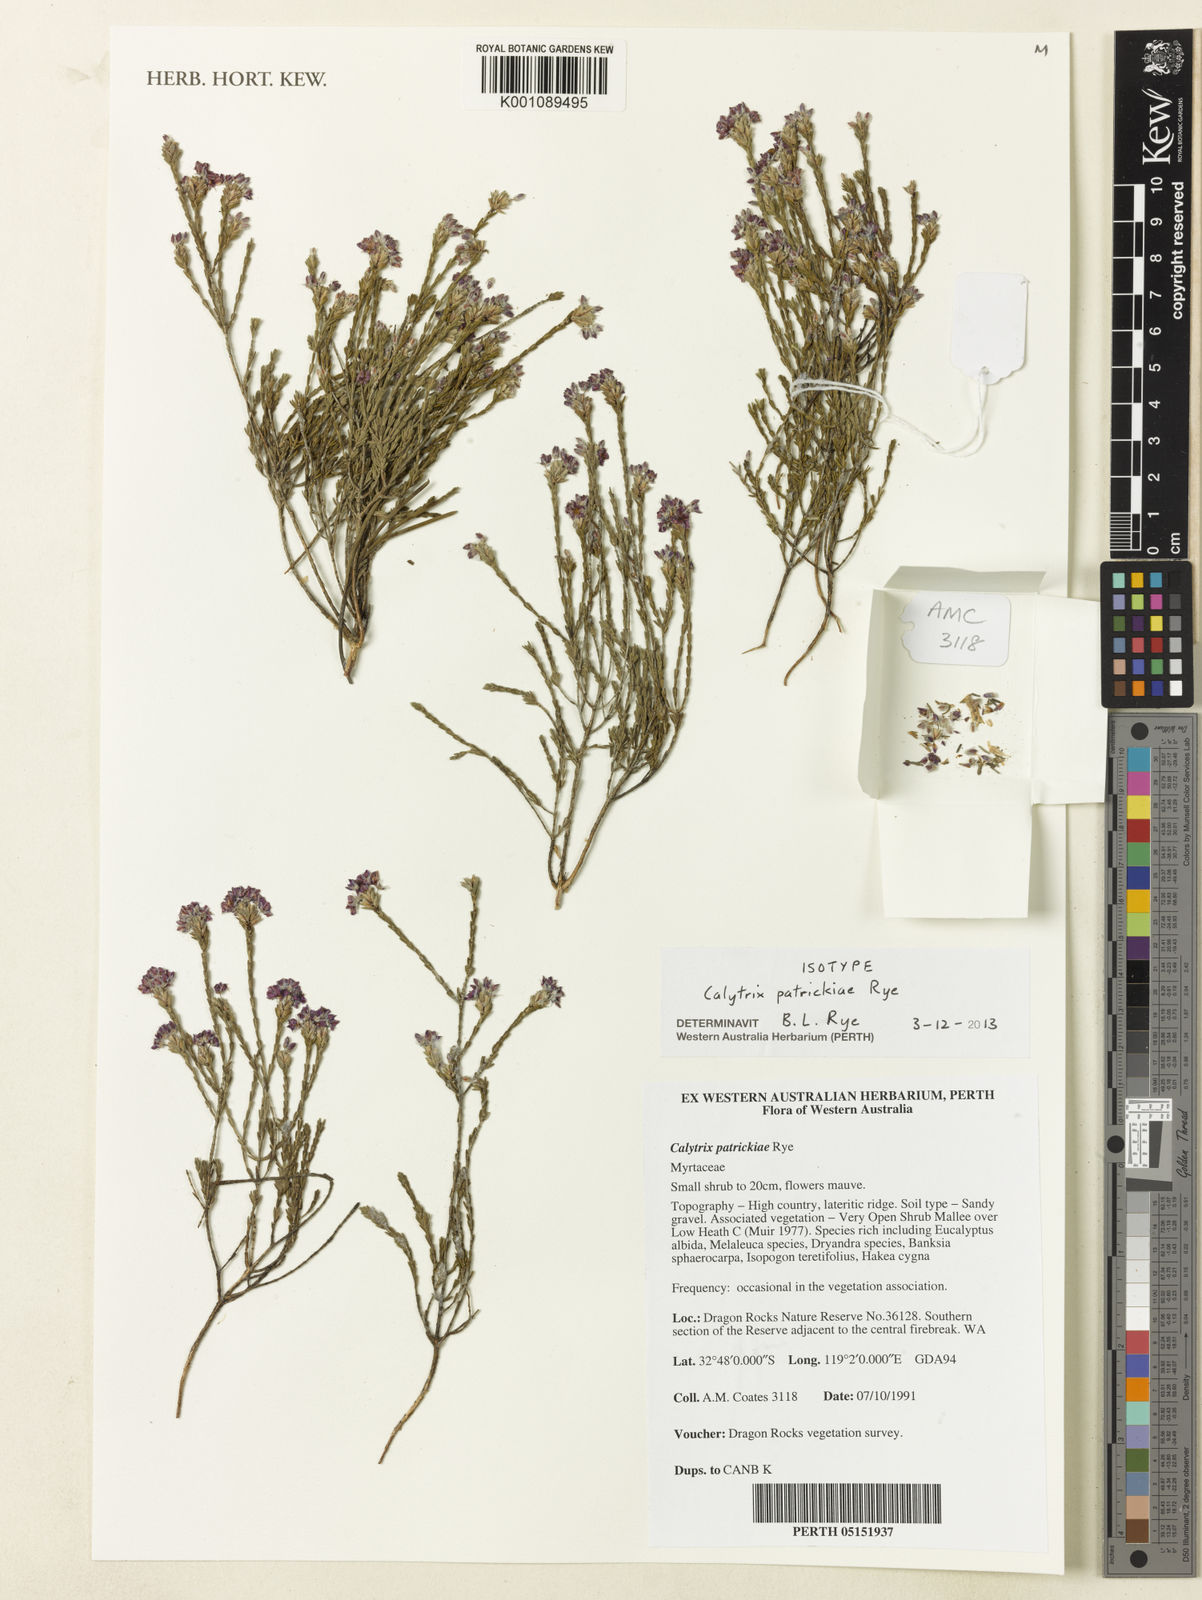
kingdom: Plantae
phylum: Tracheophyta
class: Magnoliopsida
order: Myrtales
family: Myrtaceae
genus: Calytrix
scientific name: Calytrix patrickiae
